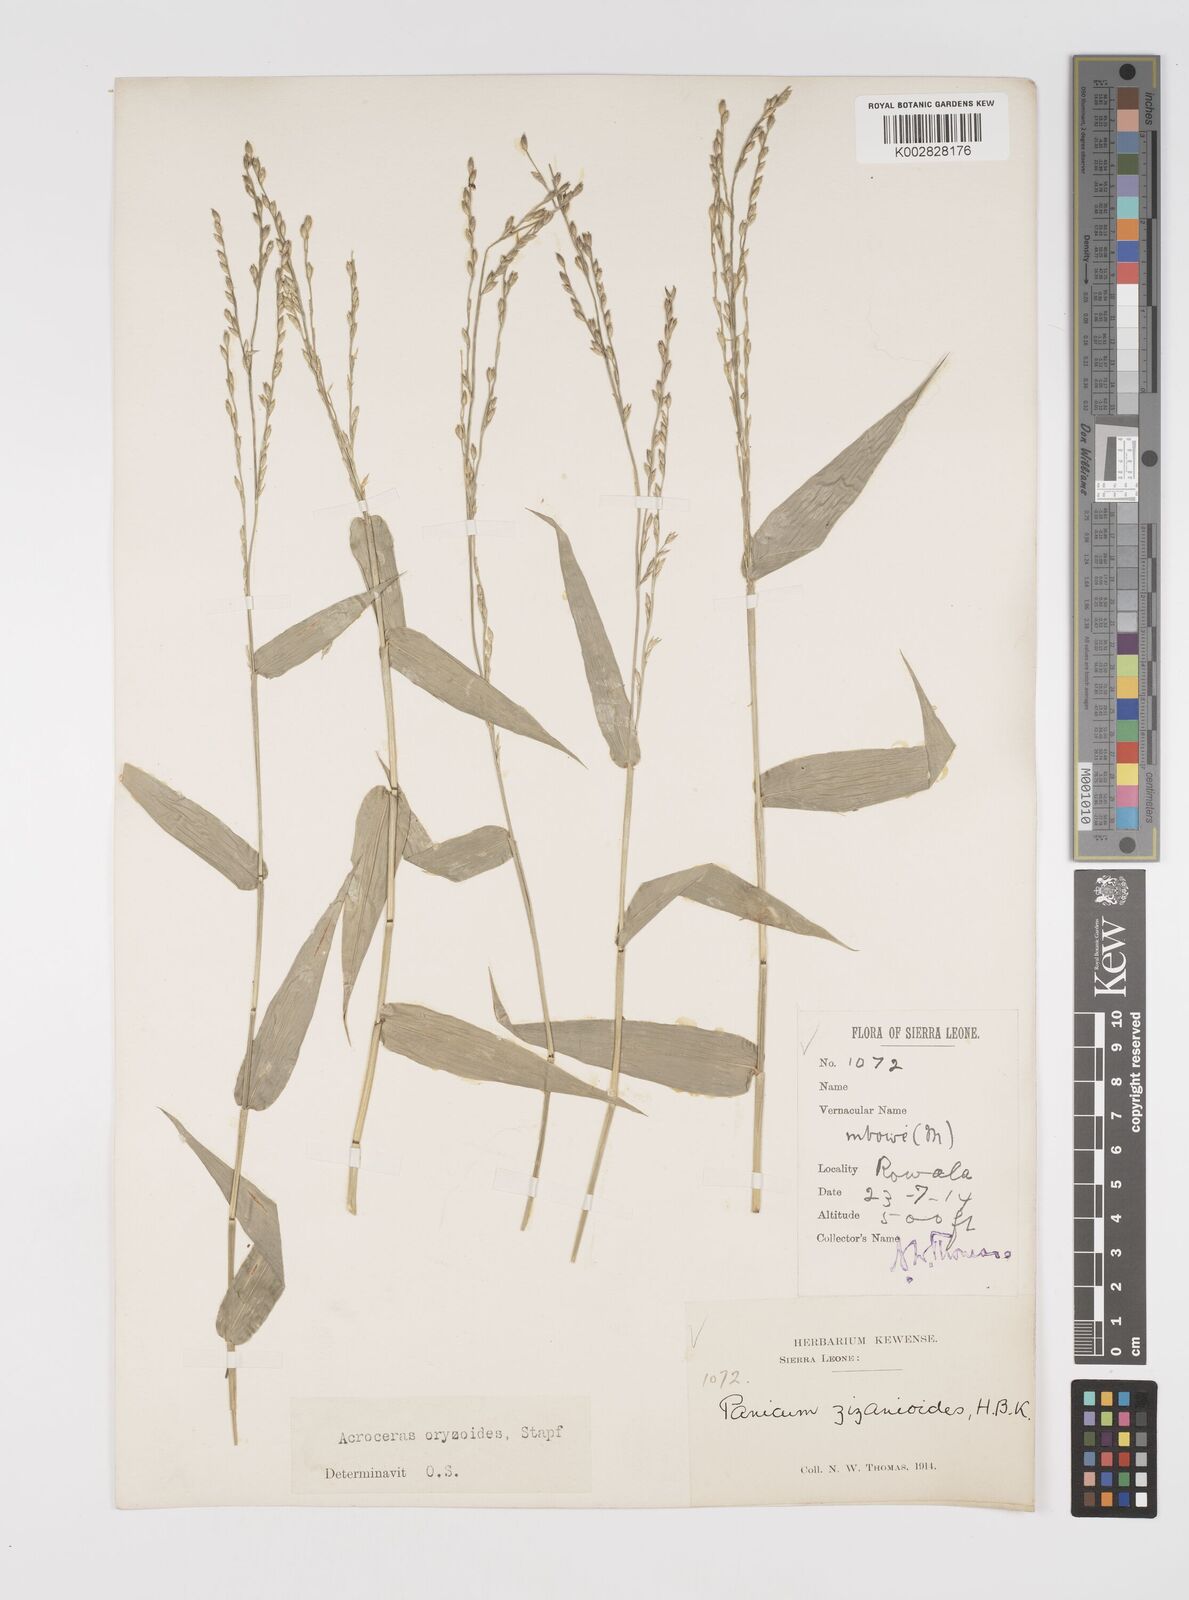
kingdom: Plantae
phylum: Tracheophyta
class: Liliopsida
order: Poales
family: Poaceae
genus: Acroceras
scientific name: Acroceras zizanioides
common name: Oat grass
